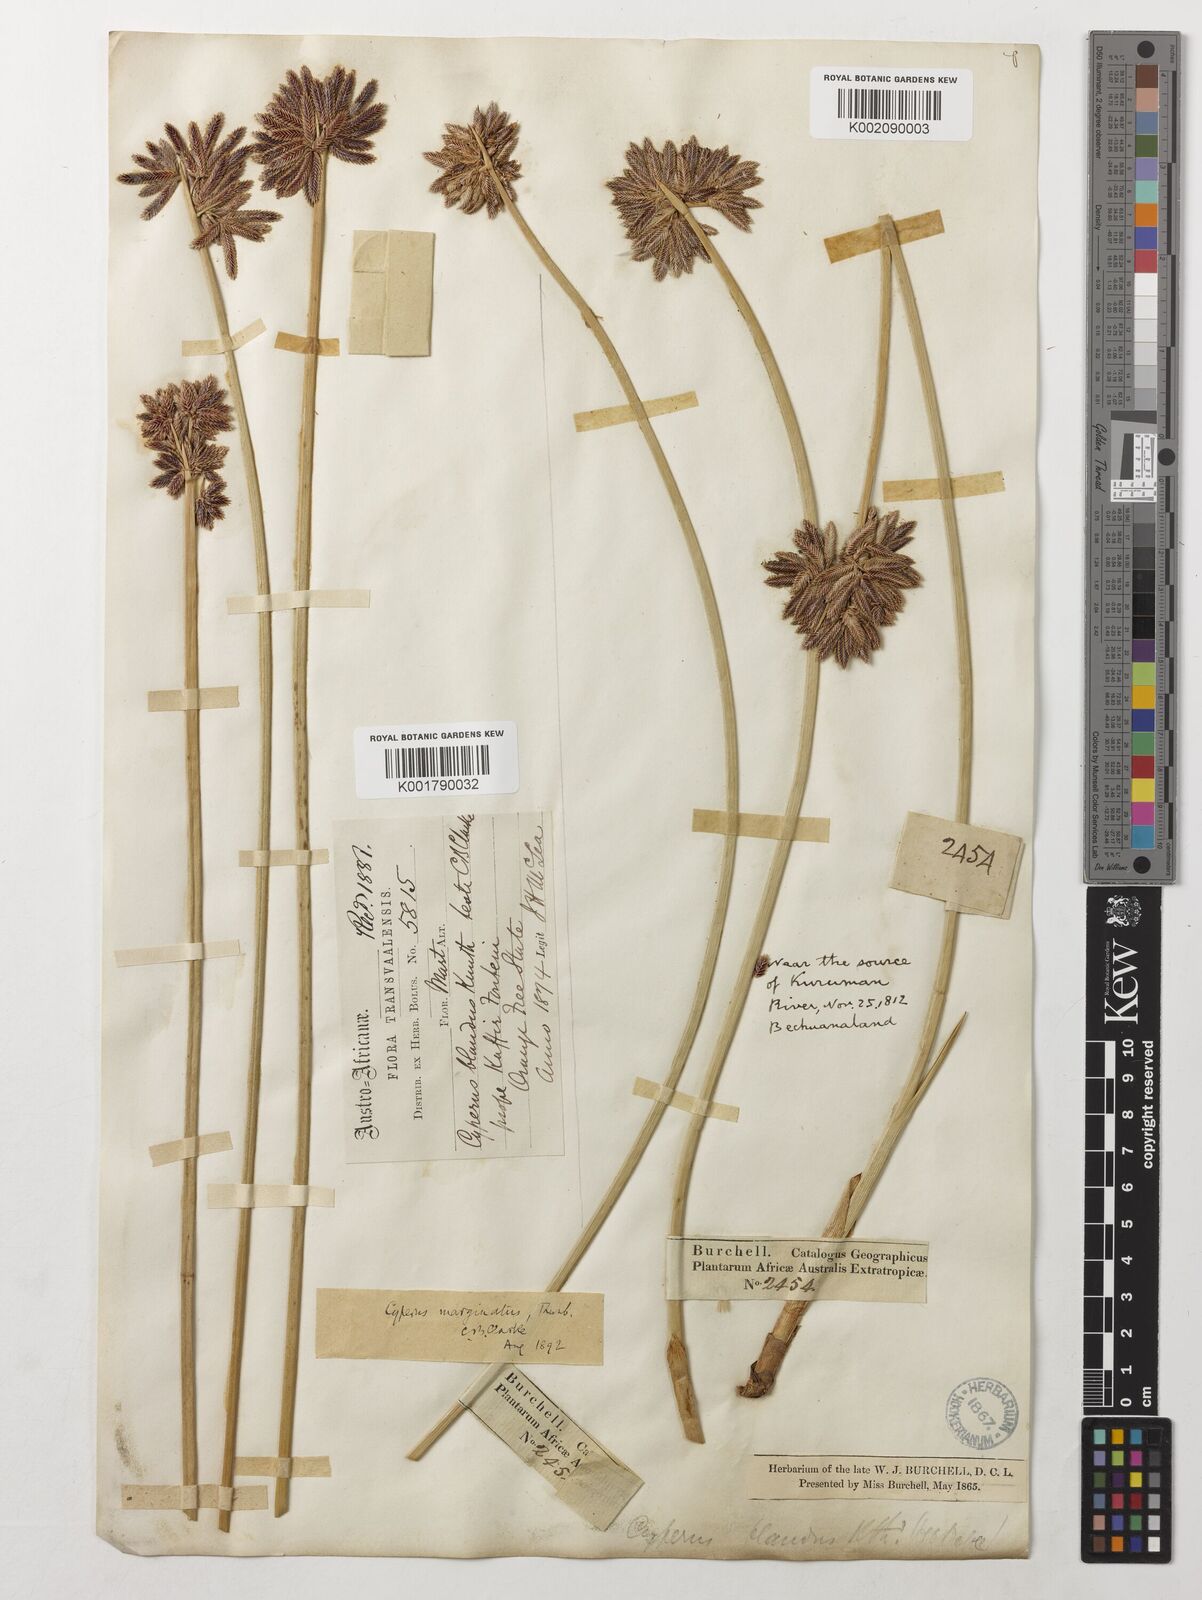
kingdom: Plantae
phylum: Tracheophyta
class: Liliopsida
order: Poales
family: Cyperaceae
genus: Cyperus
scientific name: Cyperus marginatus
